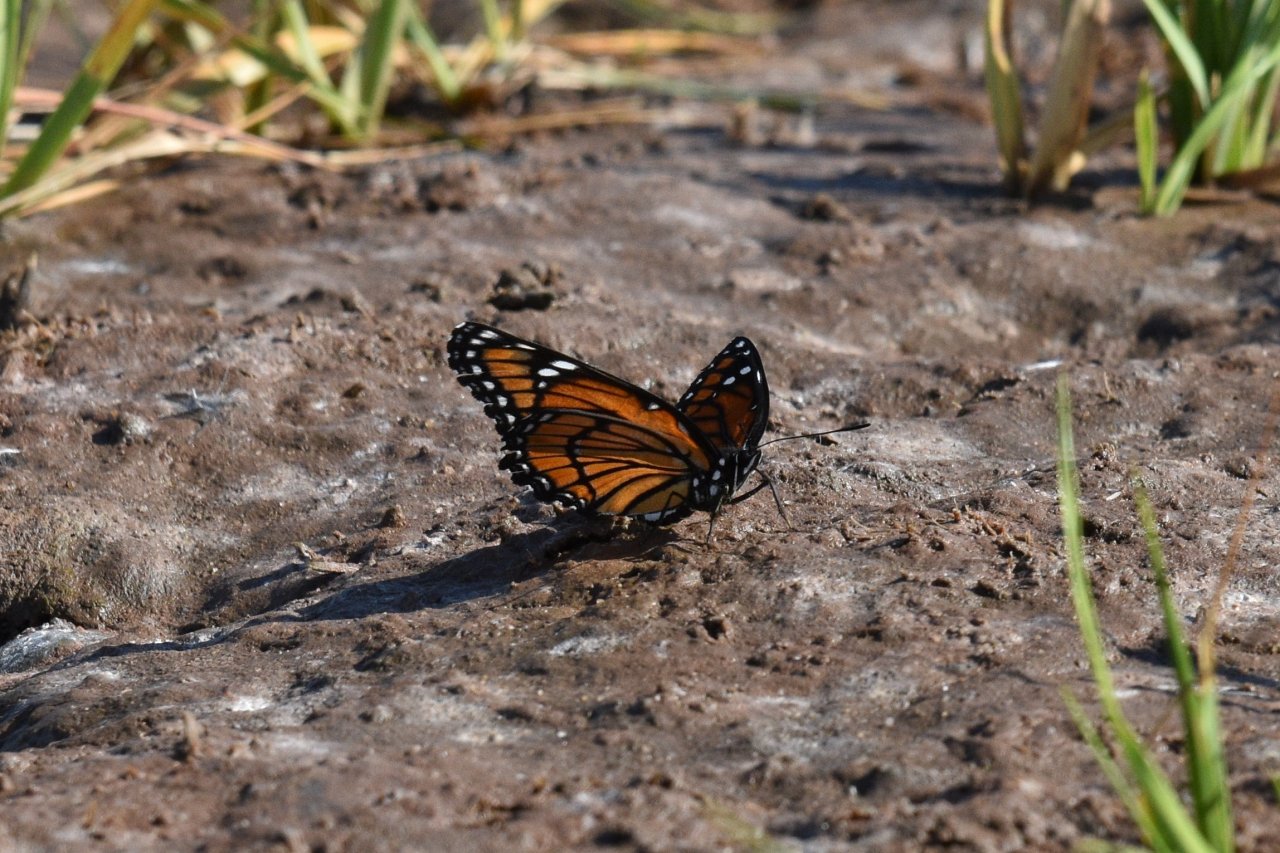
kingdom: Animalia
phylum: Arthropoda
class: Insecta
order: Lepidoptera
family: Nymphalidae
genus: Limenitis
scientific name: Limenitis archippus
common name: Viceroy
